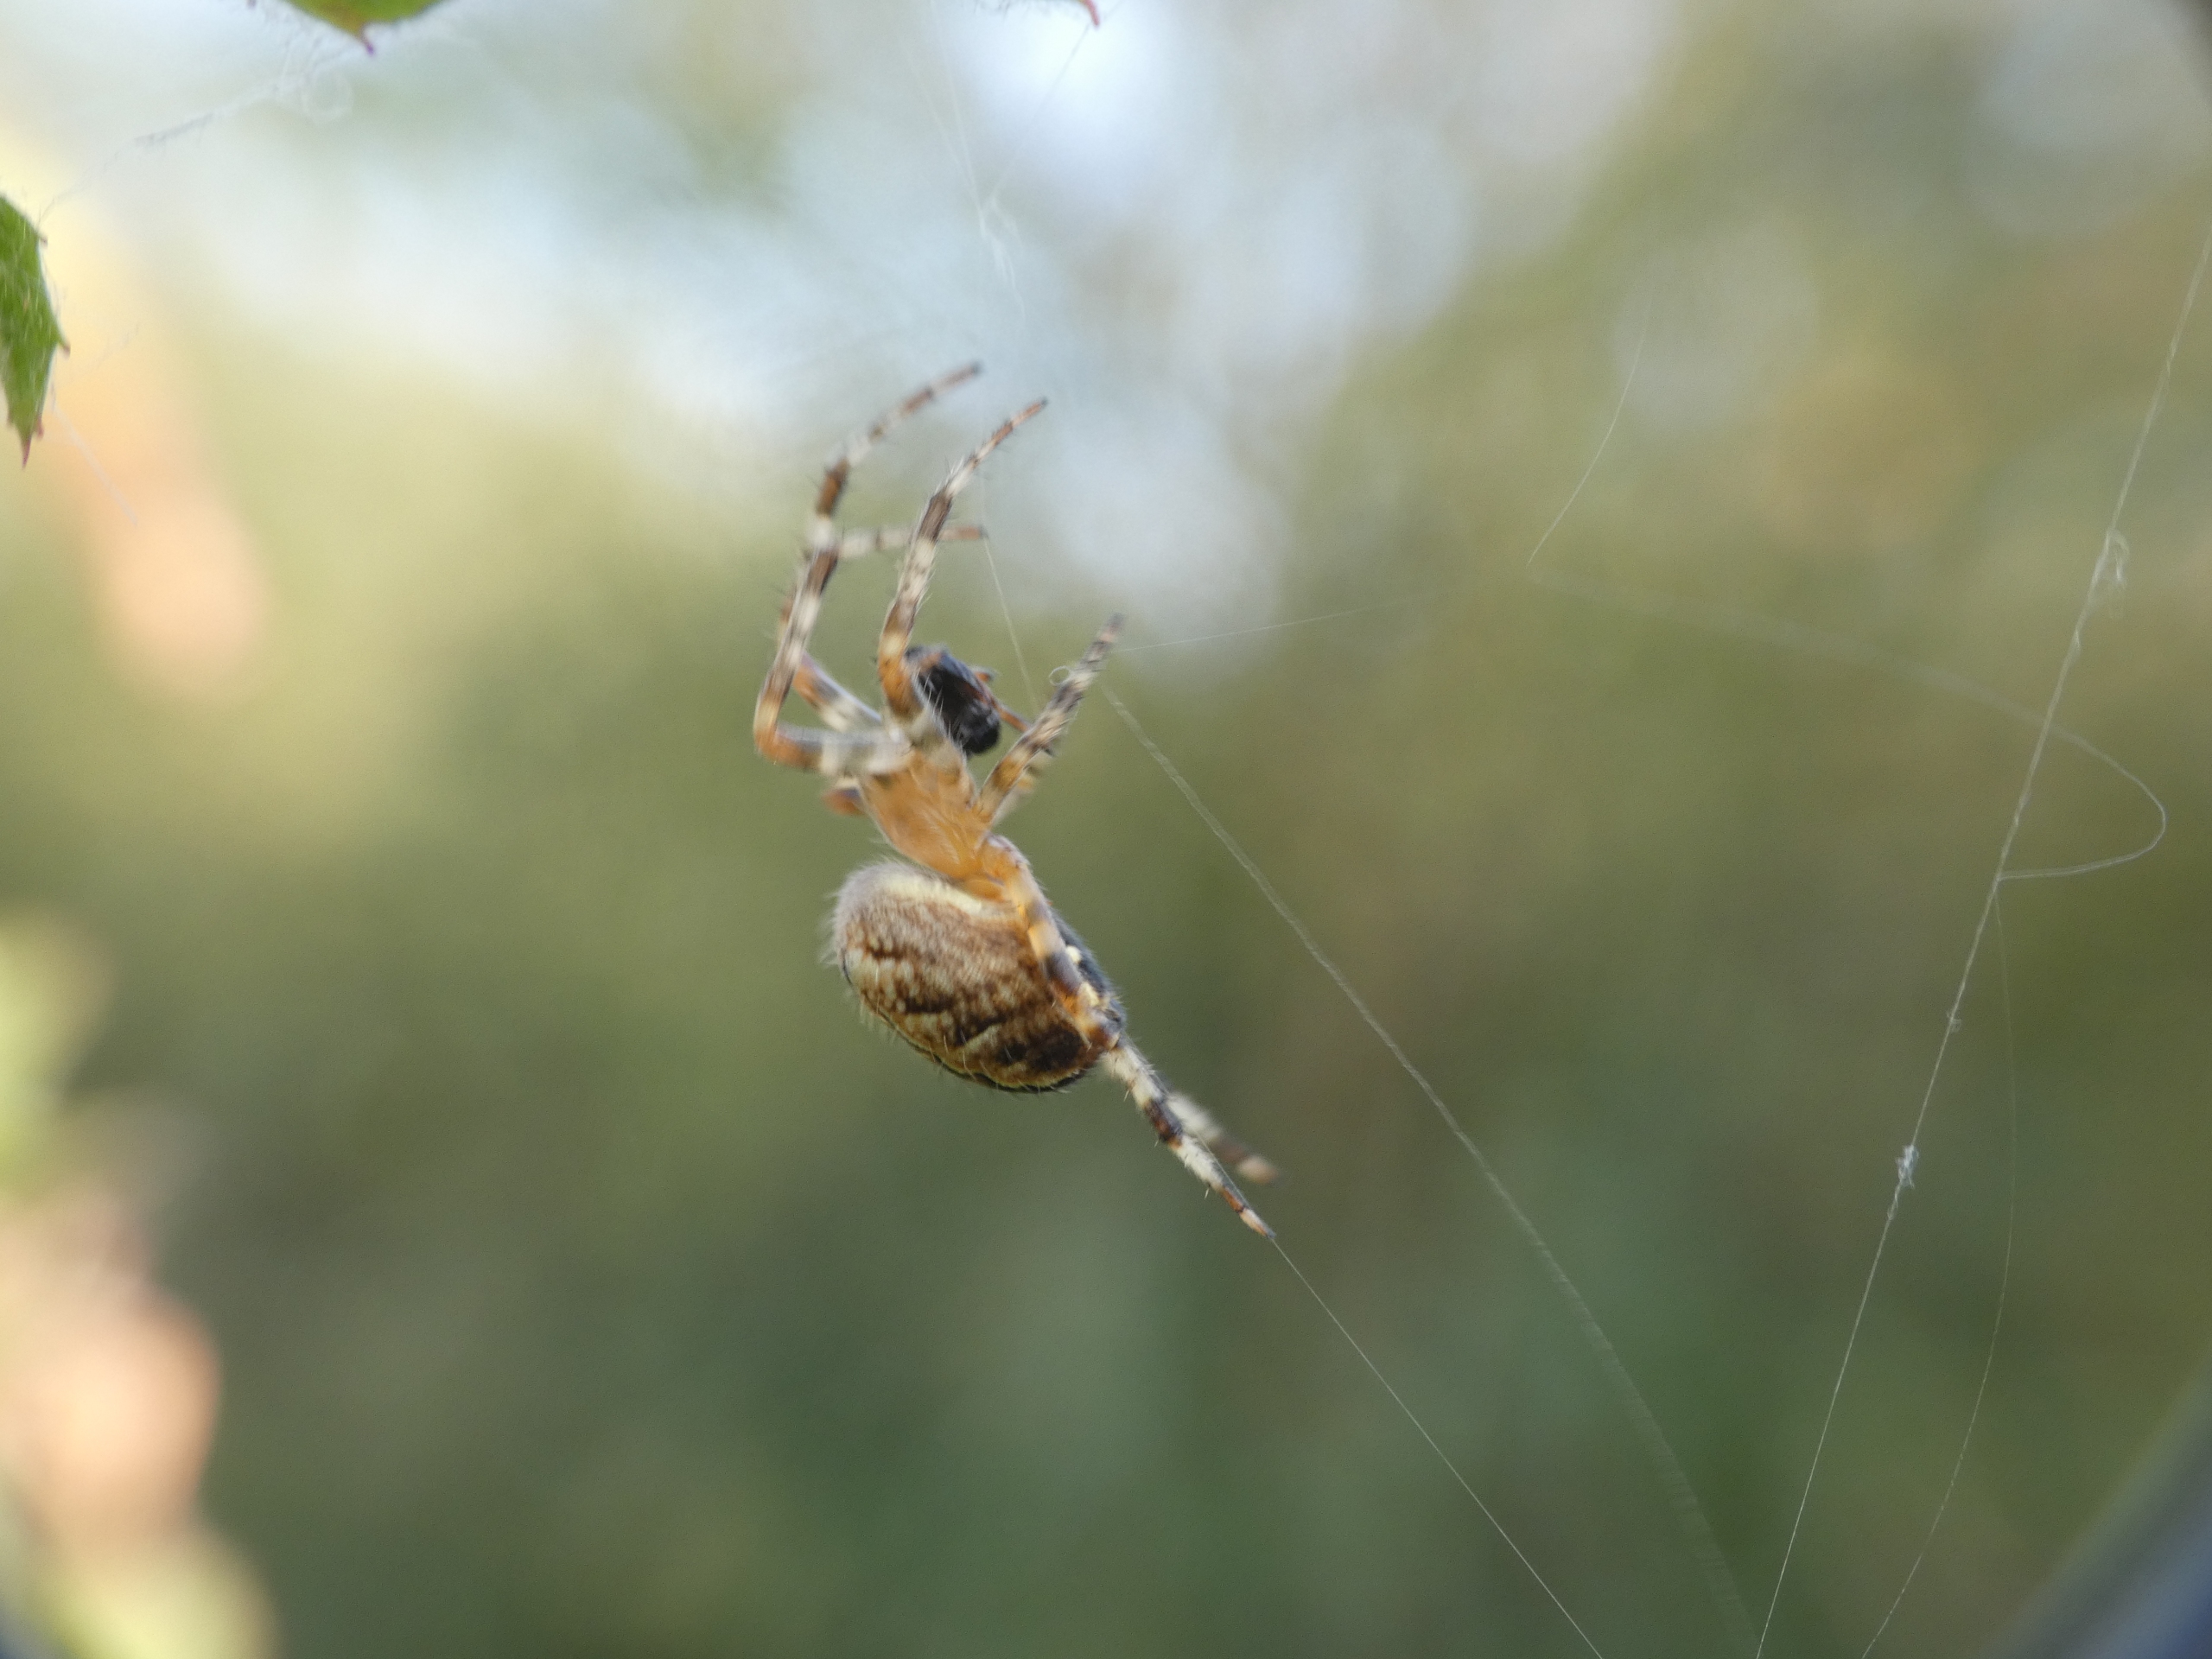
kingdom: Animalia
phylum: Arthropoda
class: Arachnida
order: Araneae
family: Araneidae
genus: Araneus
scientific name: Araneus diadematus
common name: Korsedderkop
